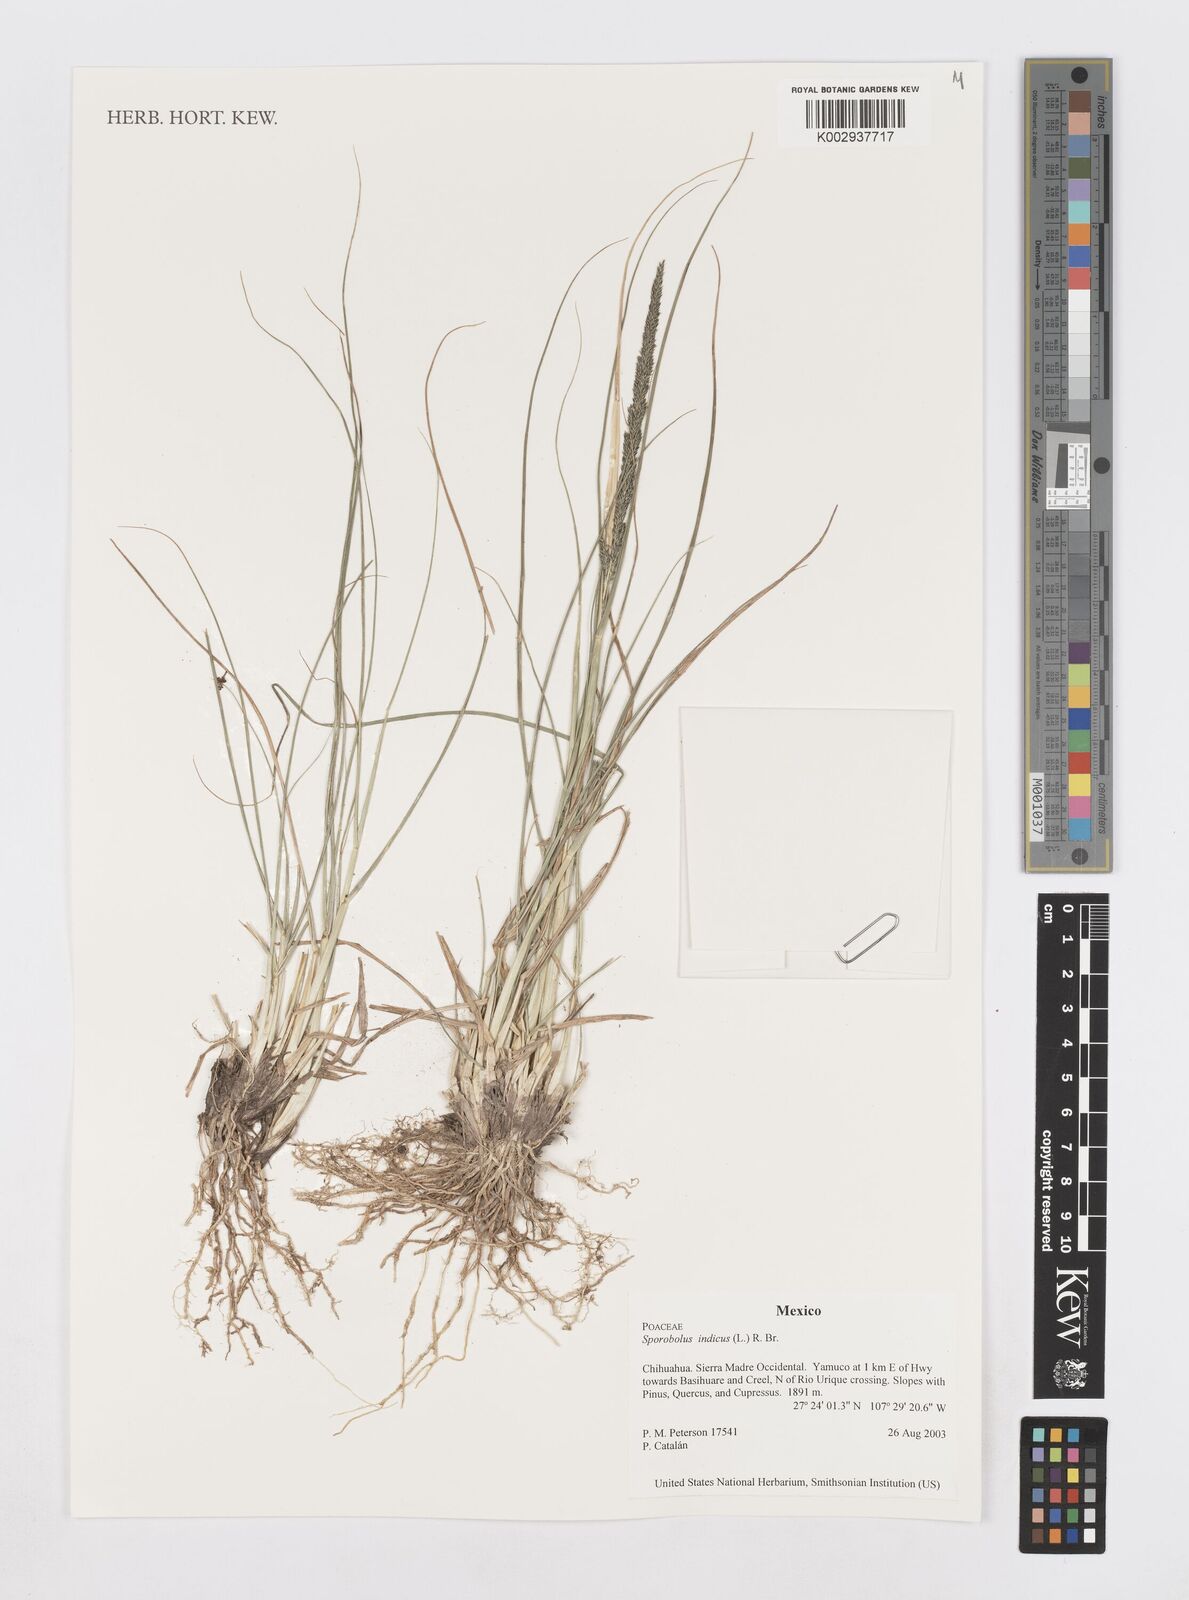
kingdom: Plantae
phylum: Tracheophyta
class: Liliopsida
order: Poales
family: Poaceae
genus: Sporobolus
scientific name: Sporobolus junceus
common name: Lizard grass
